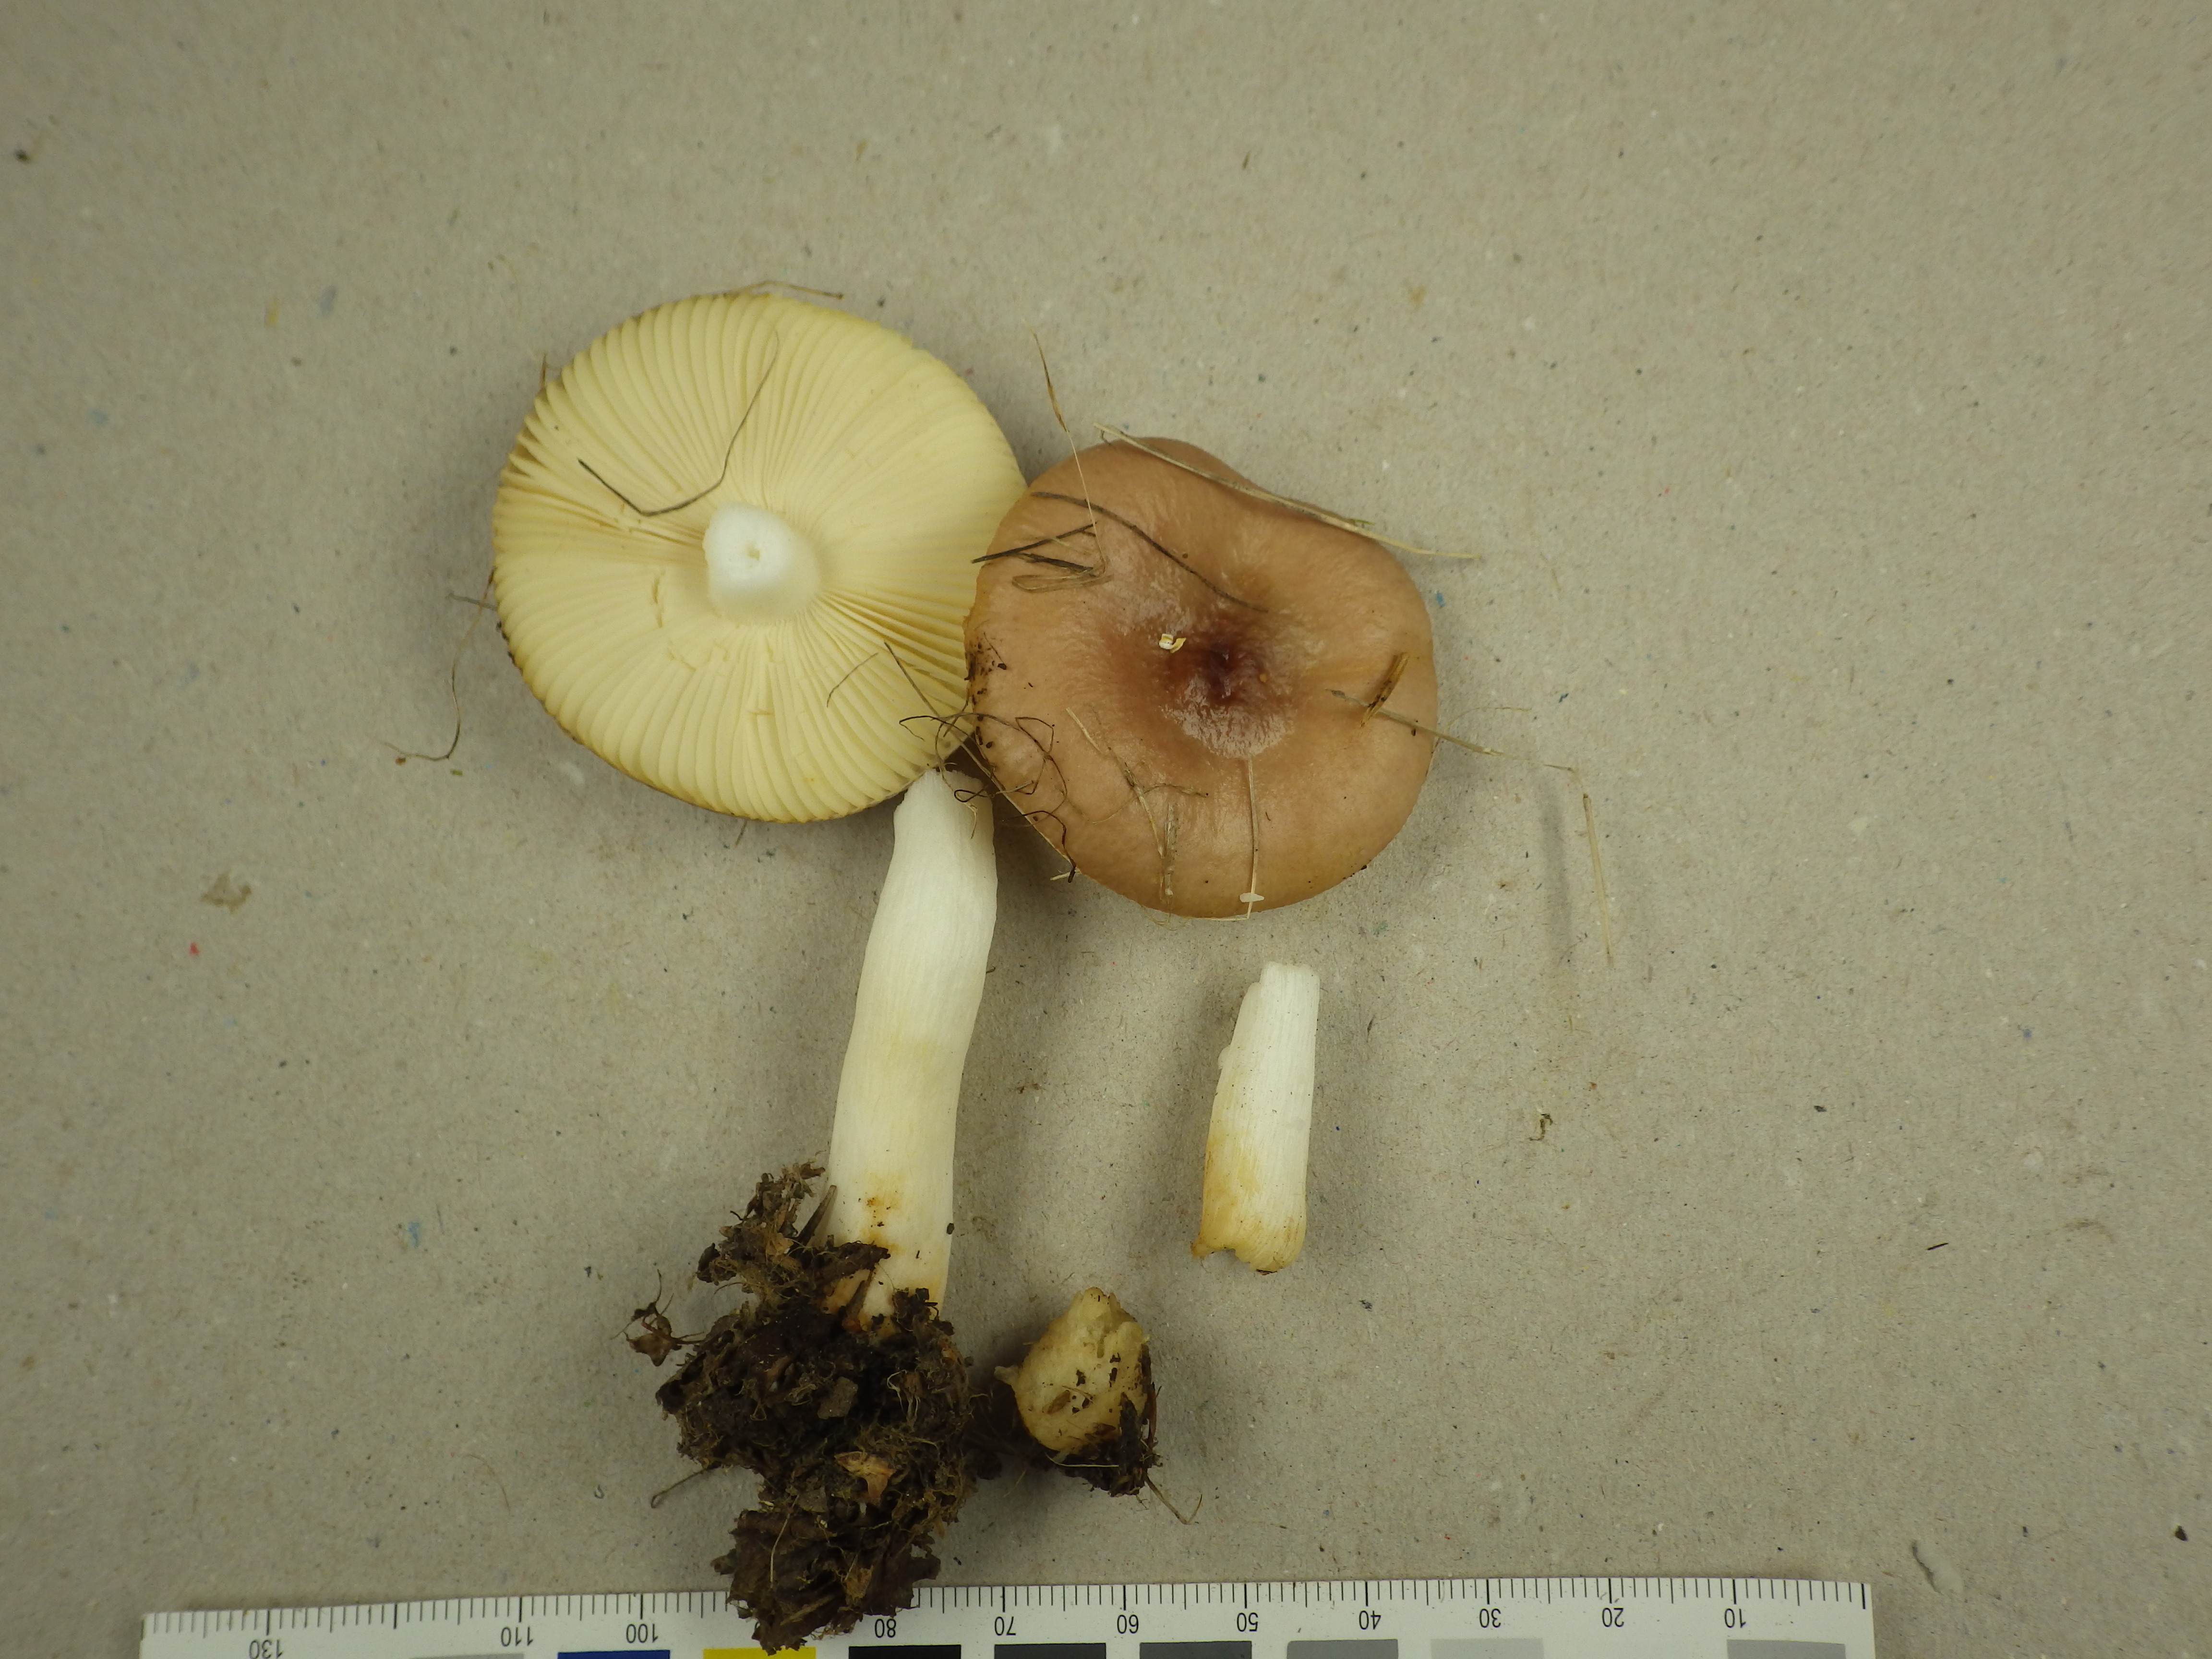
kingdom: Fungi
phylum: Basidiomycota
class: Agaricomycetes
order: Russulales
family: Russulaceae
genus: Russula
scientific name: Russula versicolor
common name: Variable brittlegill
